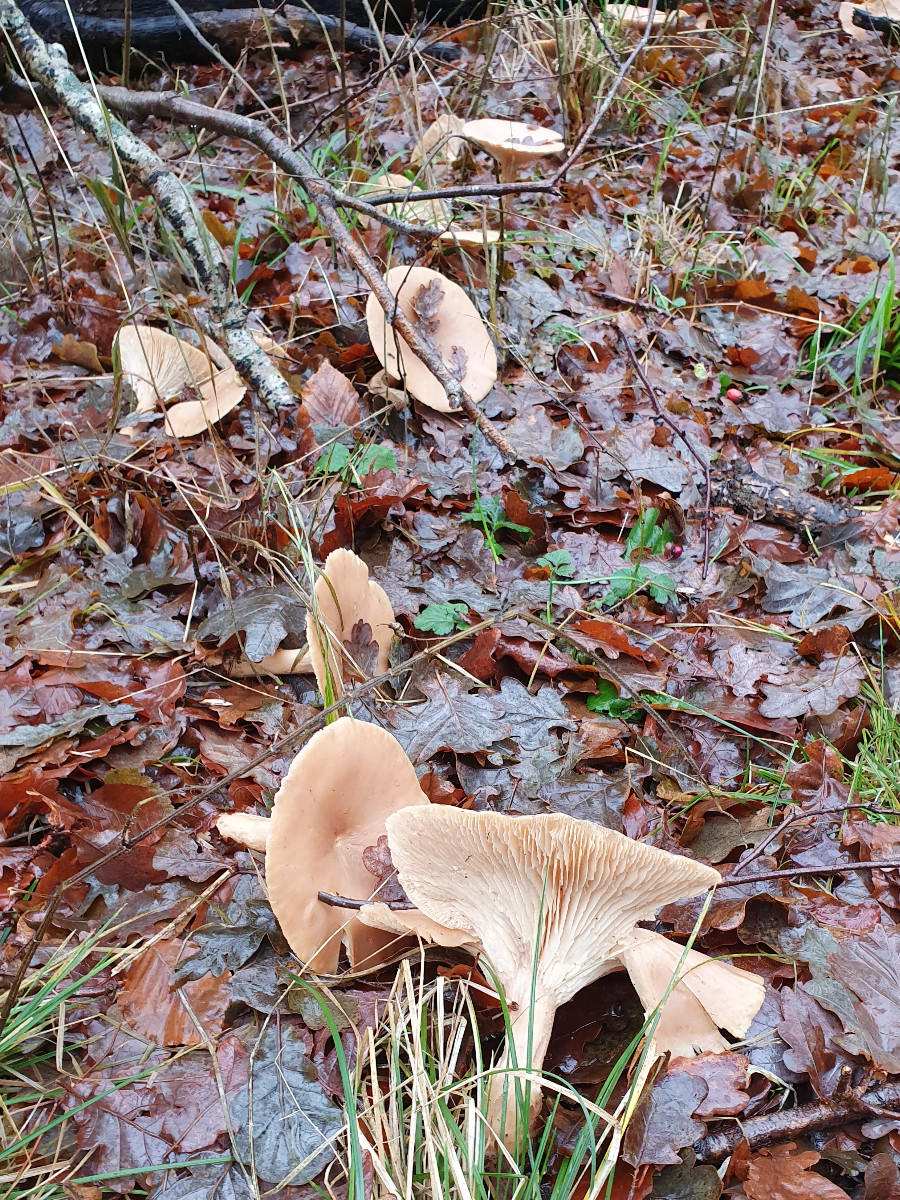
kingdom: Fungi
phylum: Basidiomycota
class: Agaricomycetes
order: Agaricales
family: Tricholomataceae
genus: Infundibulicybe
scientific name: Infundibulicybe geotropa
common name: stor tragthat
